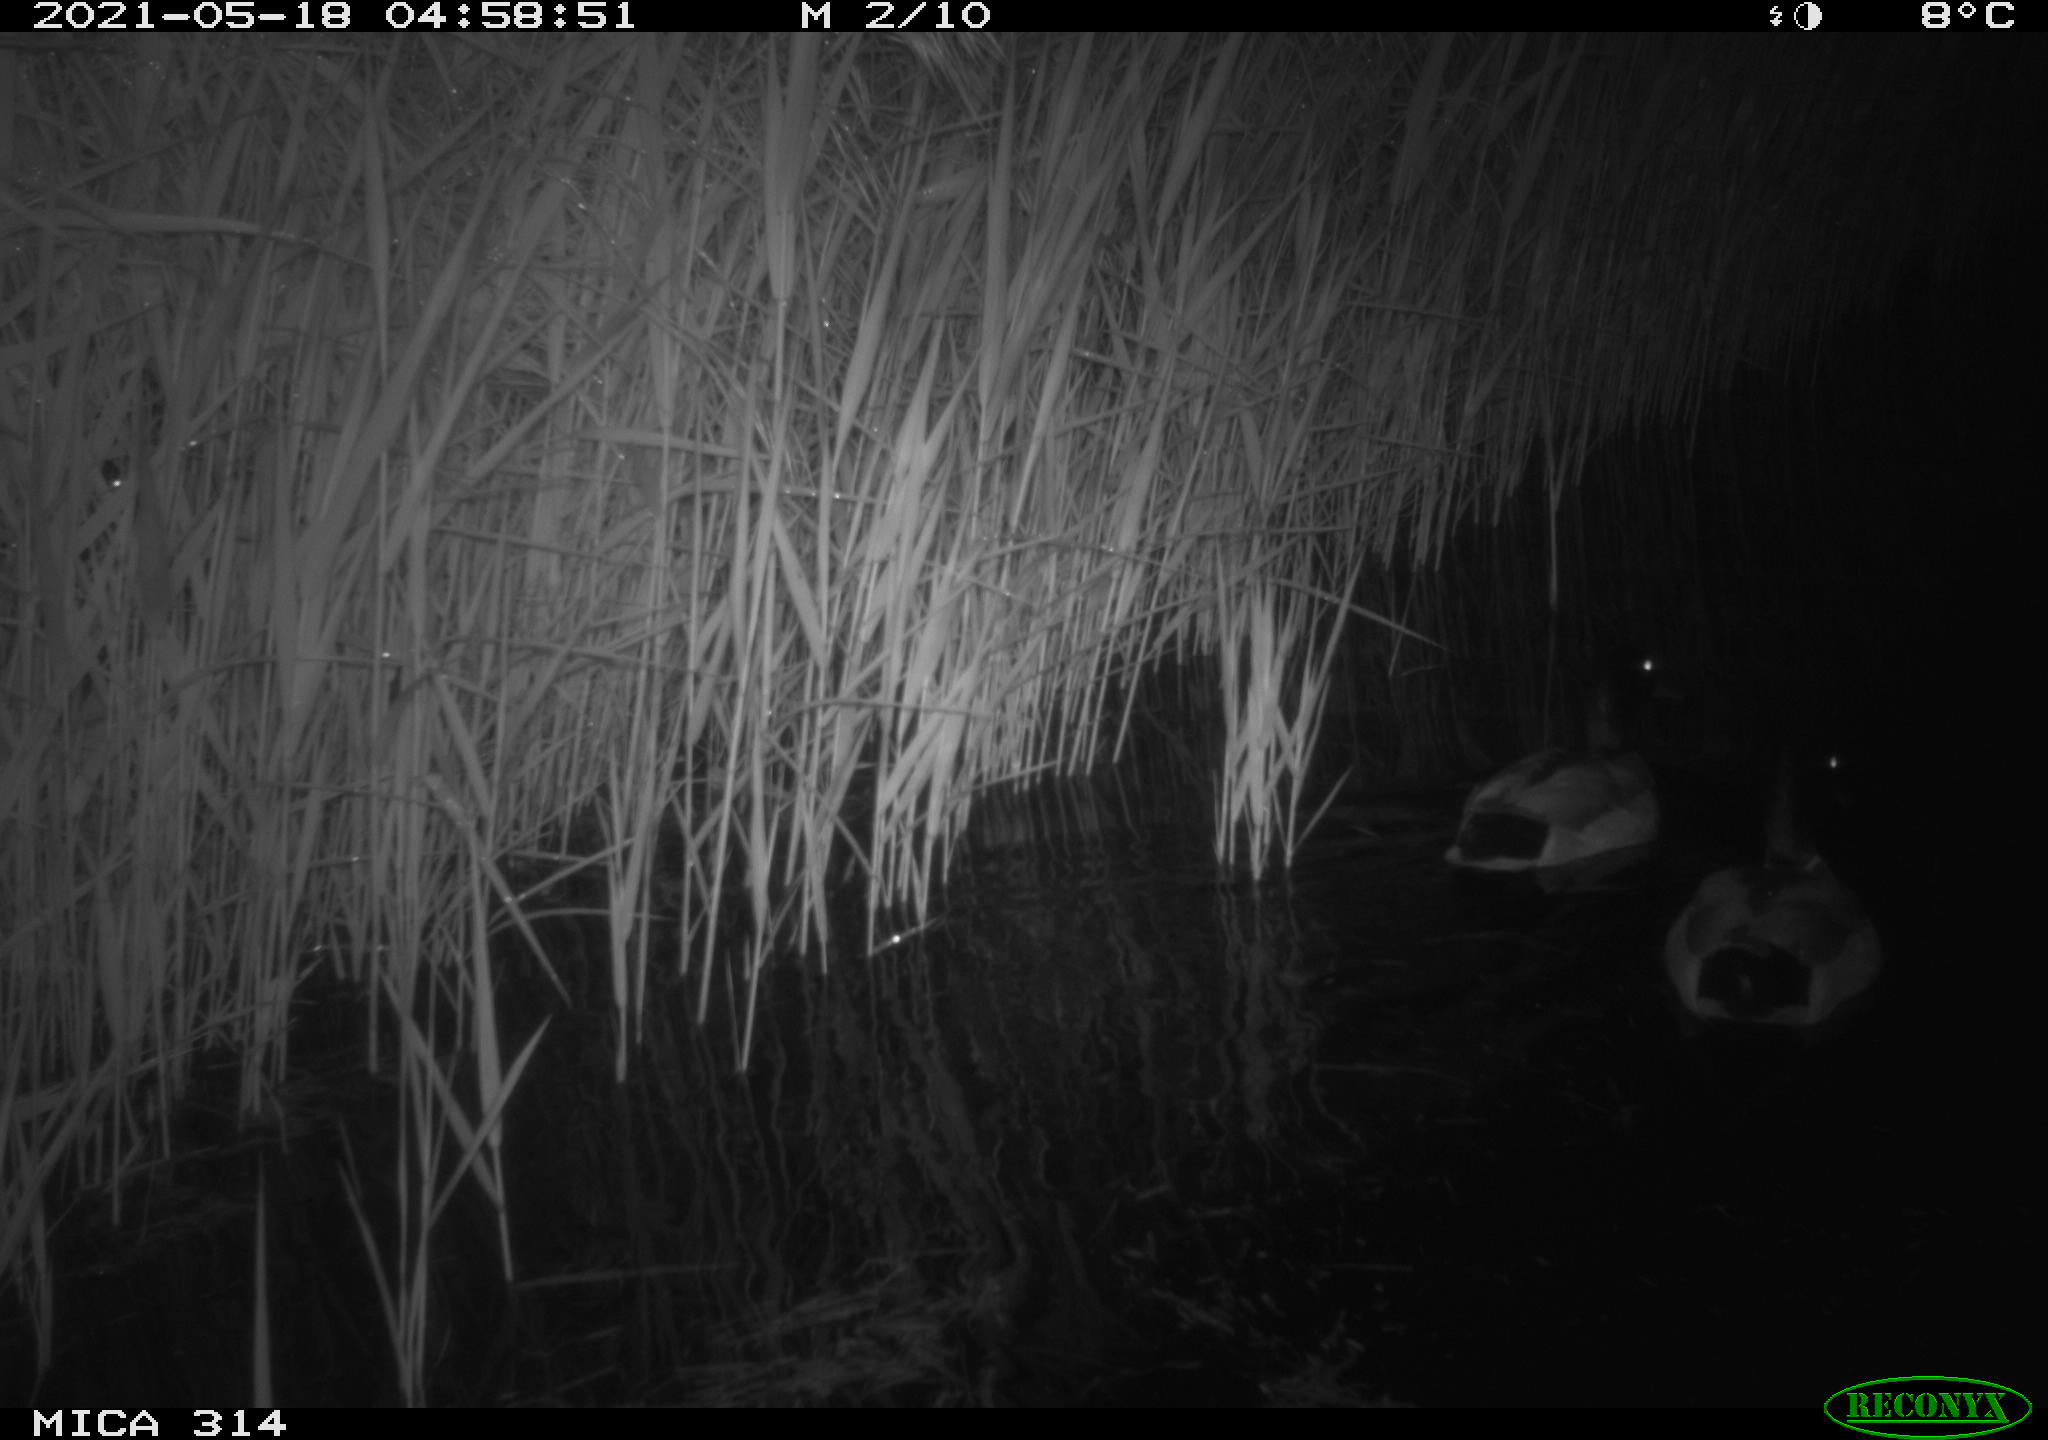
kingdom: Animalia
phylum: Chordata
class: Aves
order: Anseriformes
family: Anatidae
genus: Anas
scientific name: Anas platyrhynchos
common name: Mallard
